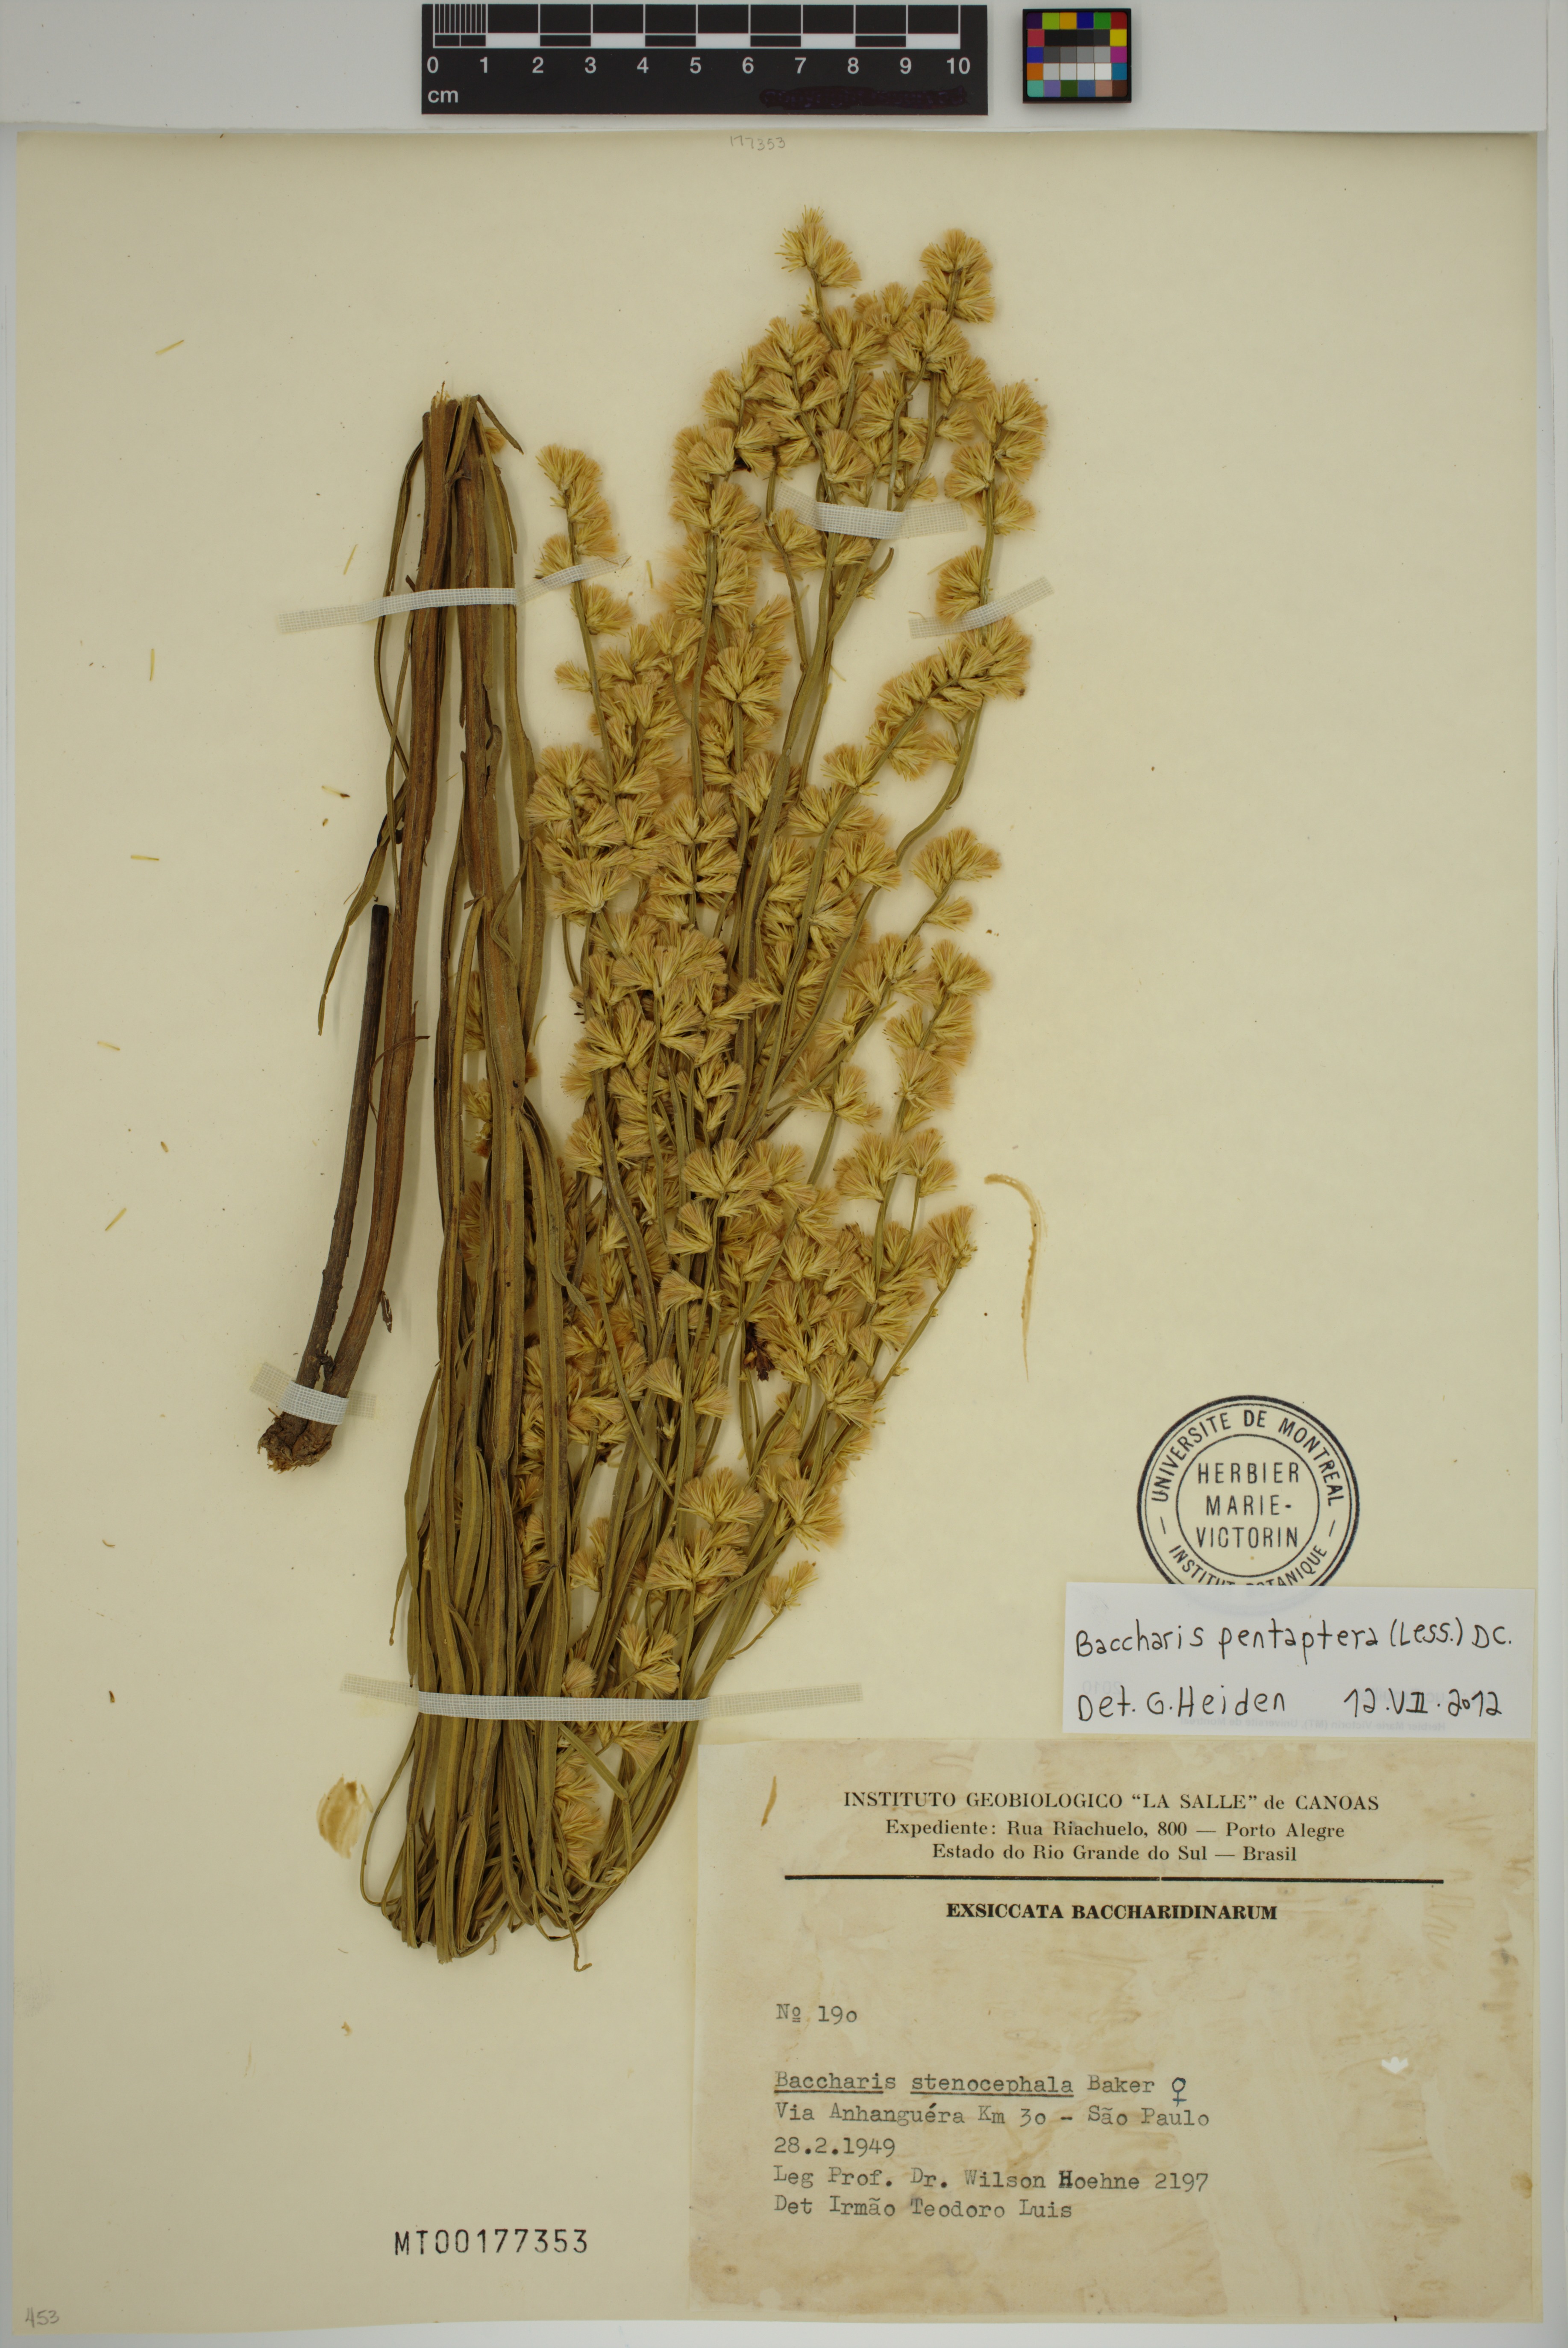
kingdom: Plantae
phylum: Tracheophyta
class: Magnoliopsida
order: Asterales
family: Asteraceae
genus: Baccharis
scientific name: Baccharis pentaptera
